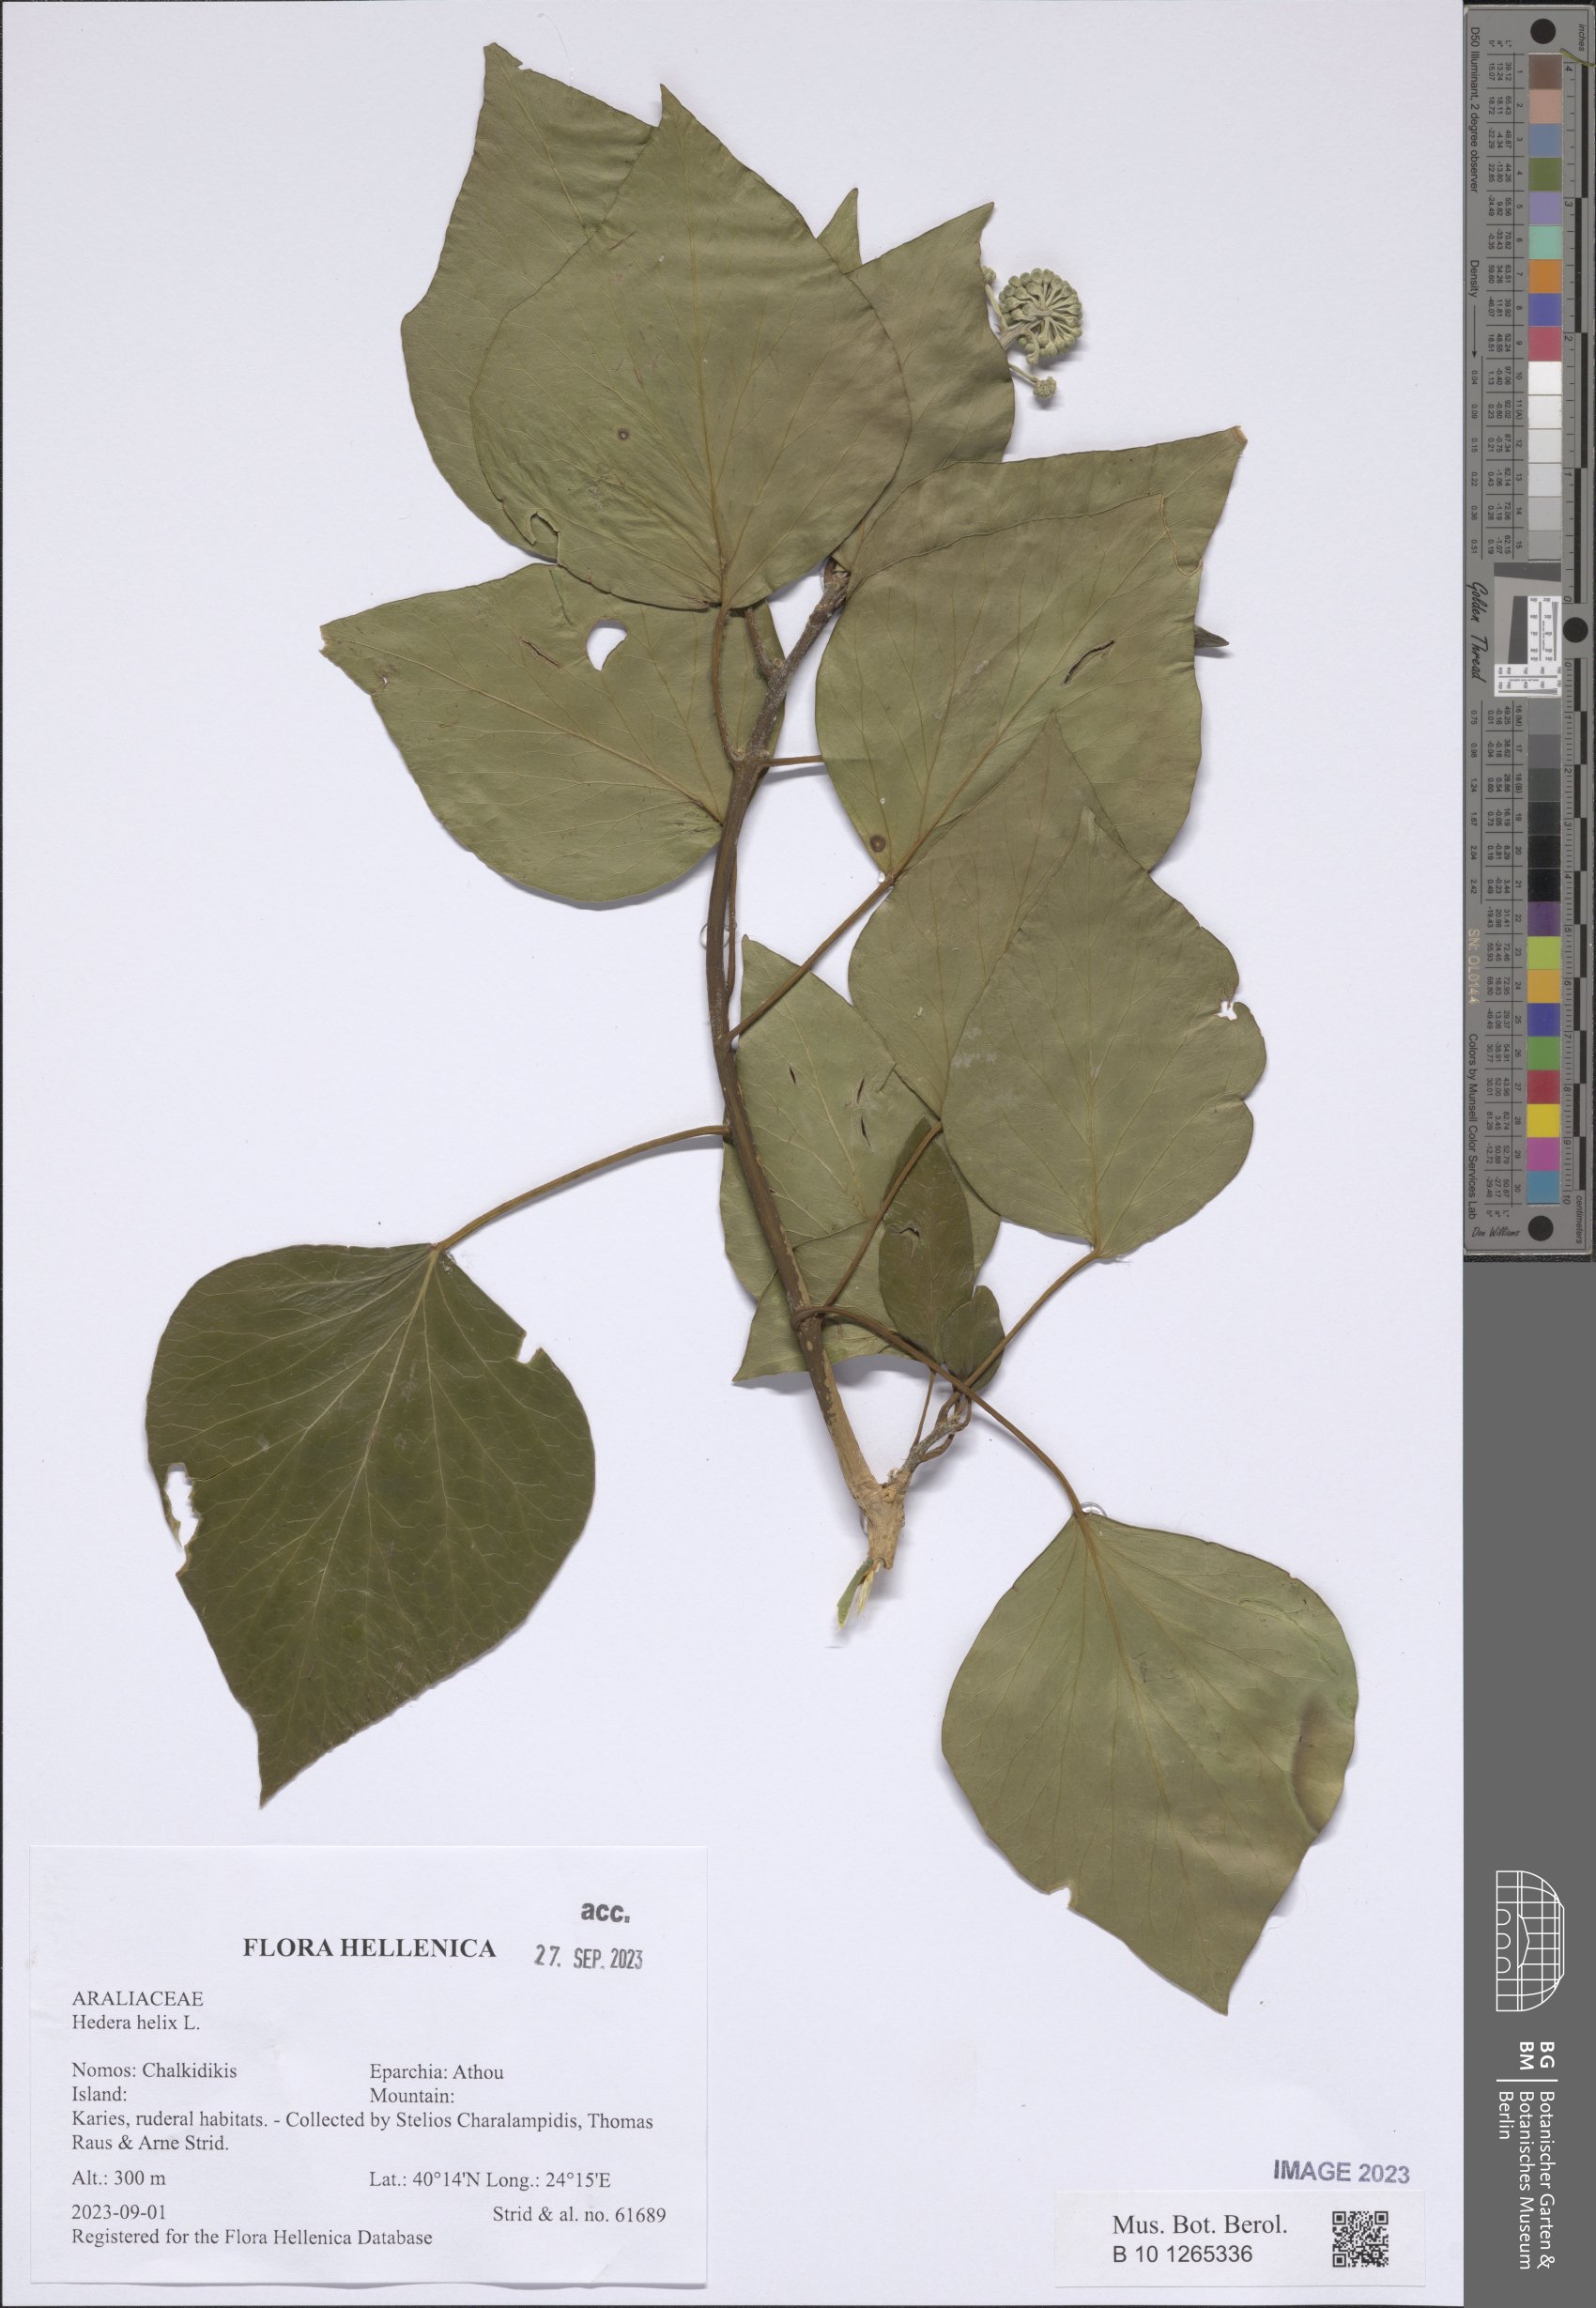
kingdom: Plantae
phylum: Tracheophyta
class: Magnoliopsida
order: Apiales
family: Araliaceae
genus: Hedera
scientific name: Hedera helix
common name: Ivy
